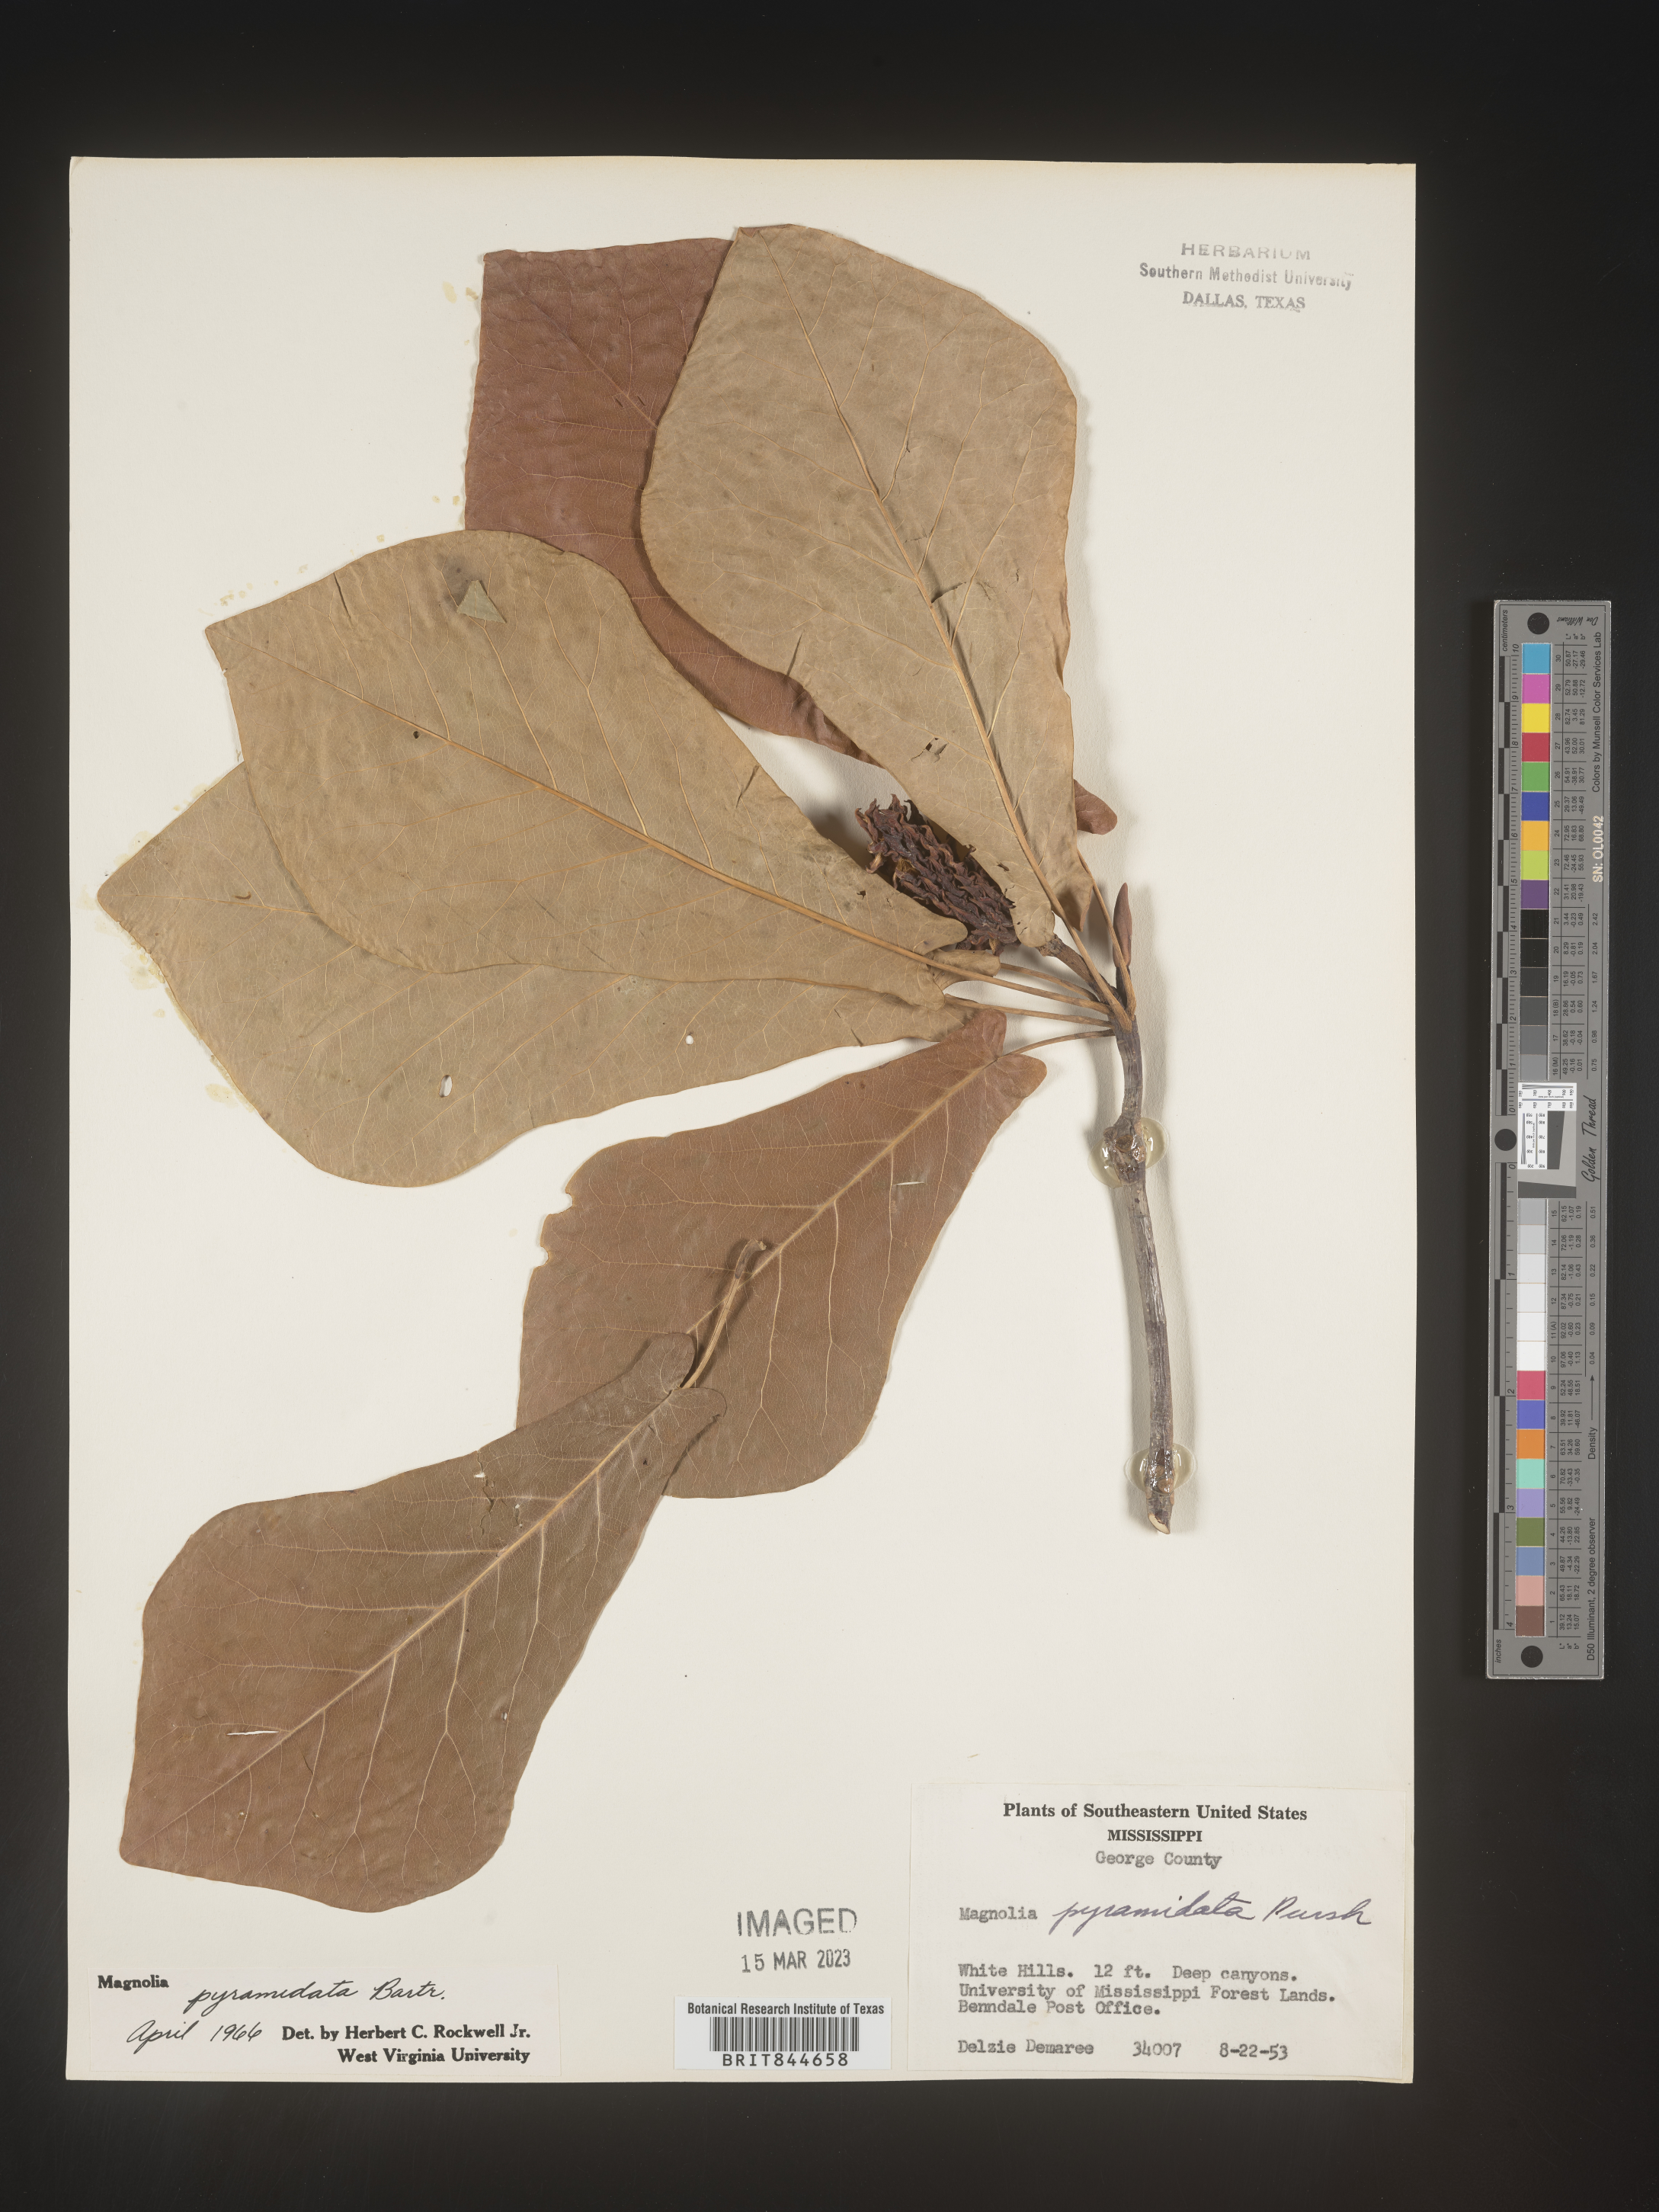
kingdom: Plantae
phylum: Tracheophyta
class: Magnoliopsida
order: Magnoliales
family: Magnoliaceae
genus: Magnolia
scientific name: Magnolia fraseri
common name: Fraser's magnolia
